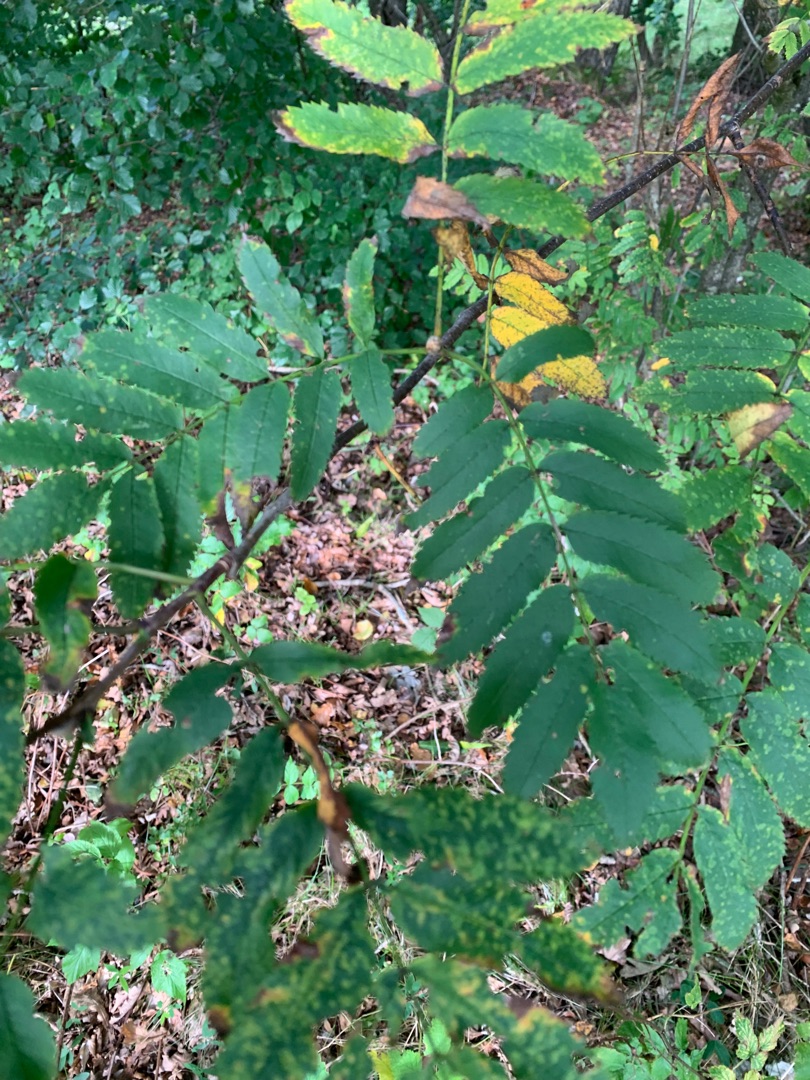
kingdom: Plantae
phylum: Tracheophyta
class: Magnoliopsida
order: Rosales
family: Rosaceae
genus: Sorbus
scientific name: Sorbus aucuparia
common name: Almindelig røn
